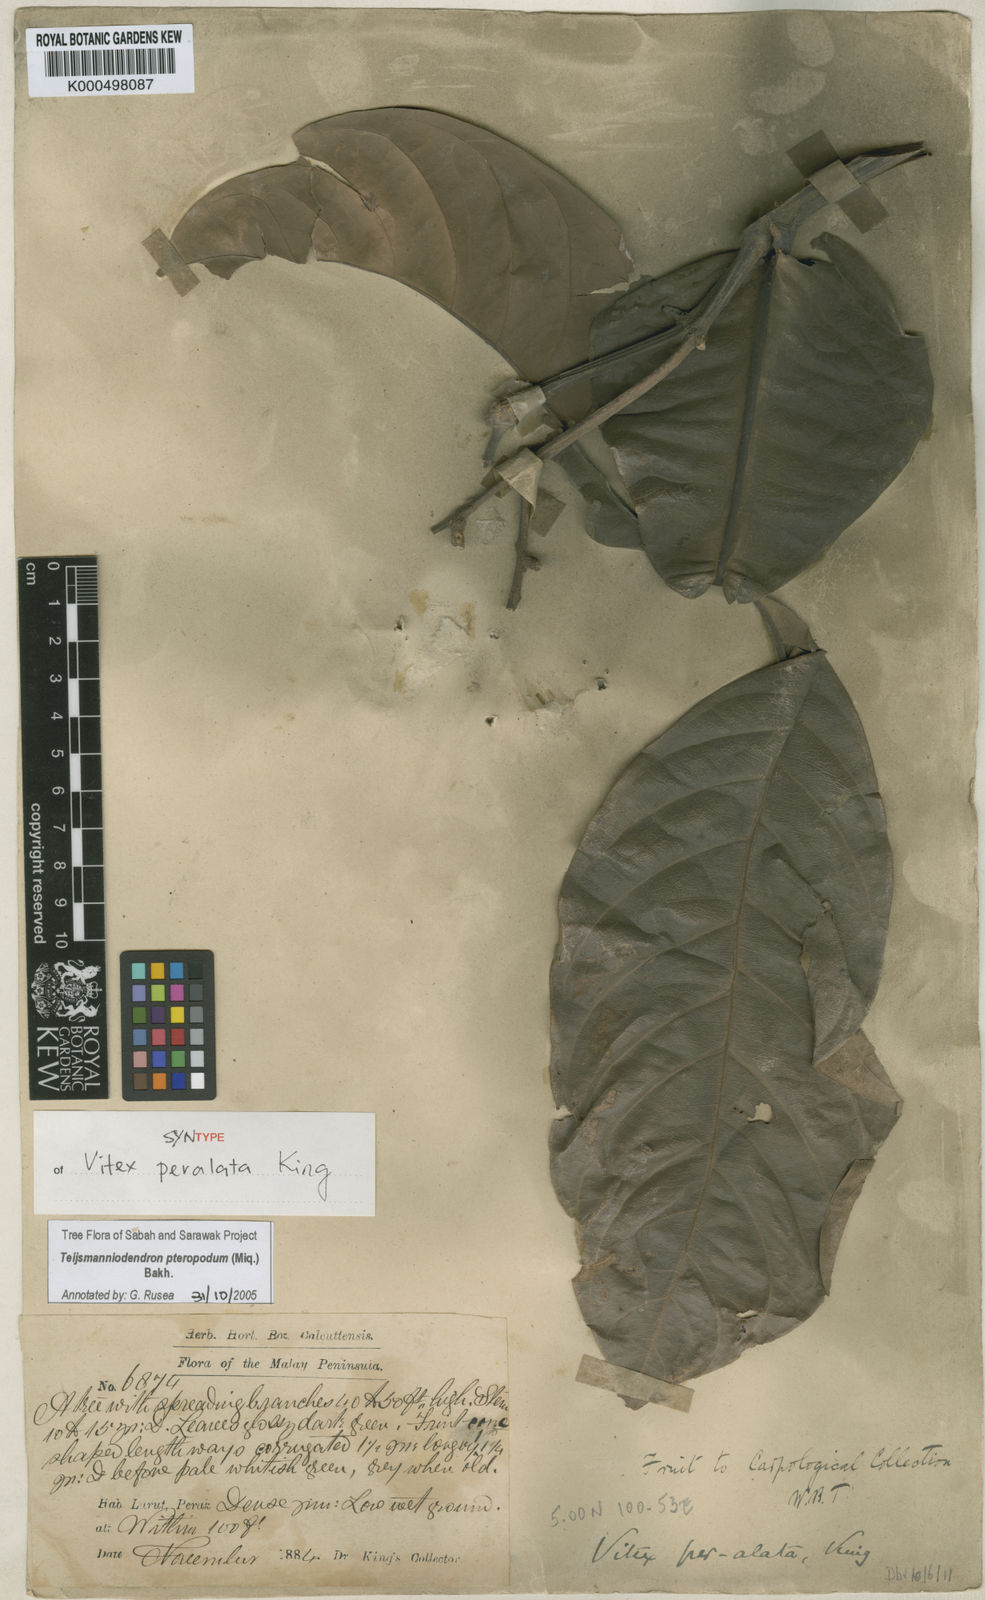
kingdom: Plantae
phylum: Tracheophyta
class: Magnoliopsida
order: Lamiales
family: Lamiaceae
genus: Teijsmanniodendron
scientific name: Teijsmanniodendron pteropodum
